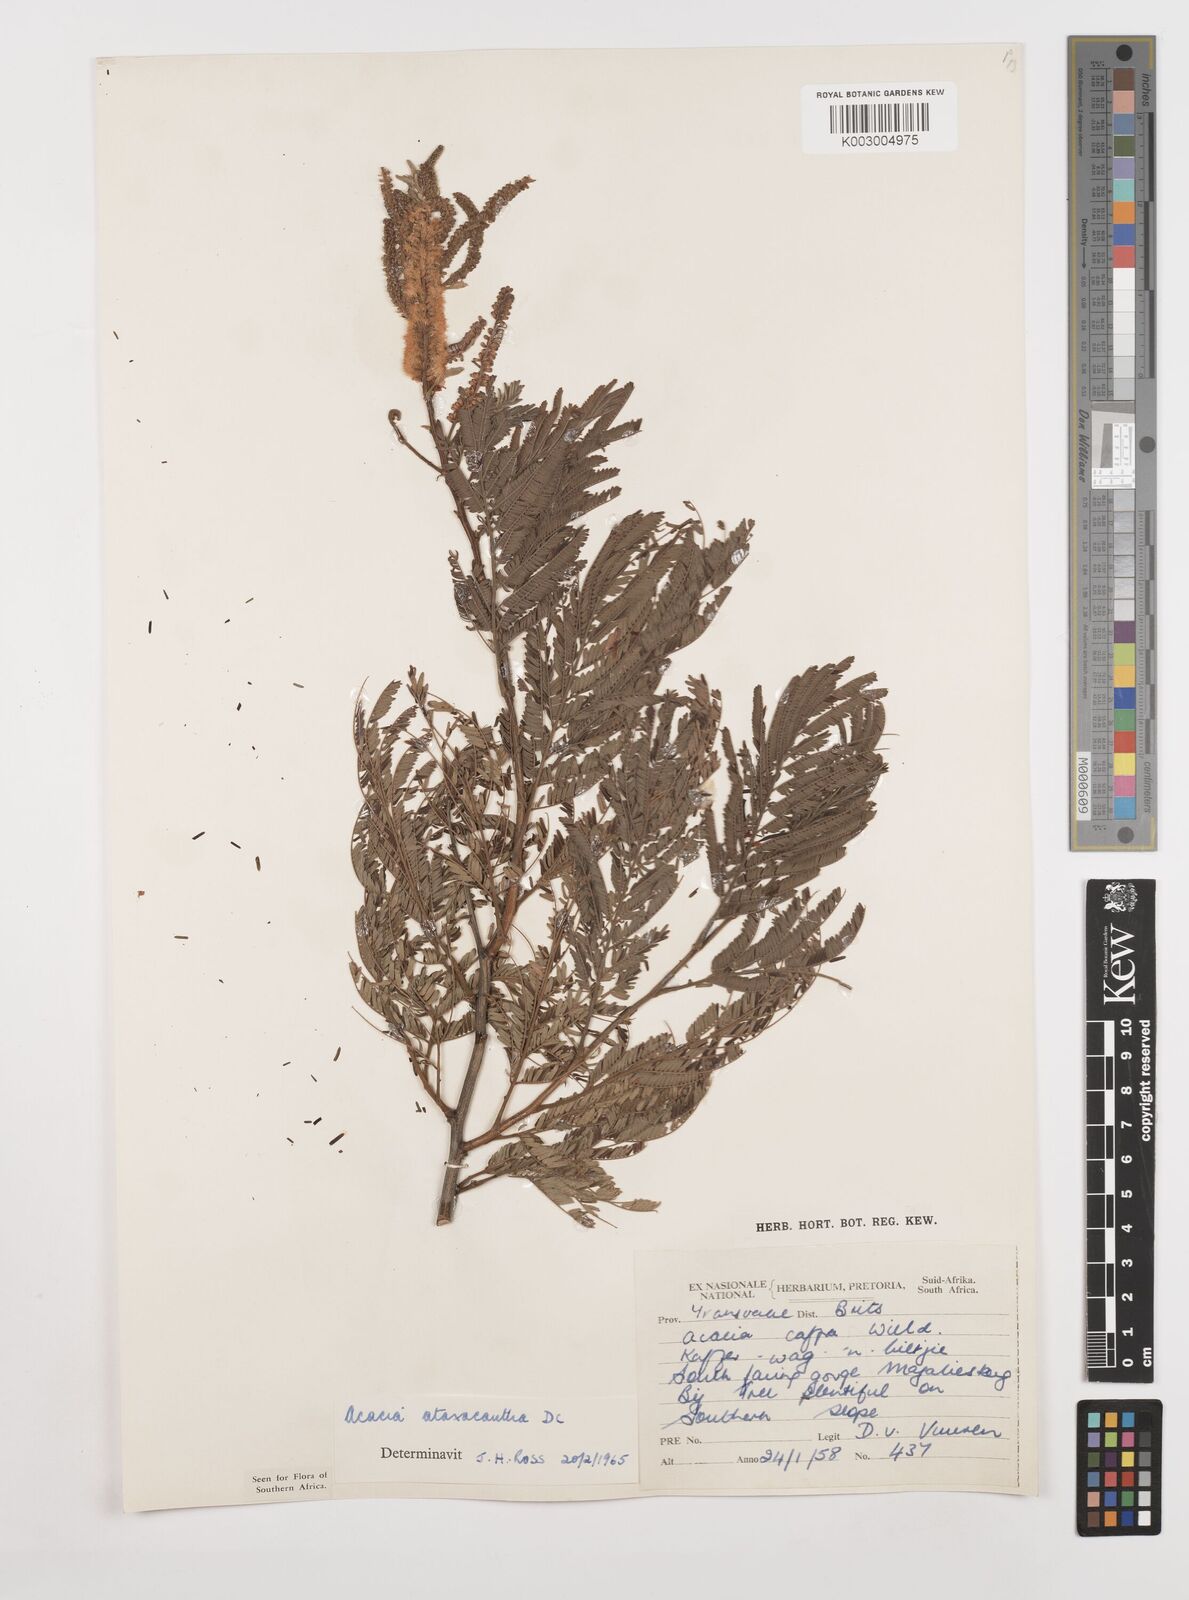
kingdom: Plantae
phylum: Tracheophyta
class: Magnoliopsida
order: Fabales
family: Fabaceae
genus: Senegalia
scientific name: Senegalia ataxacantha
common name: Flame acacia
